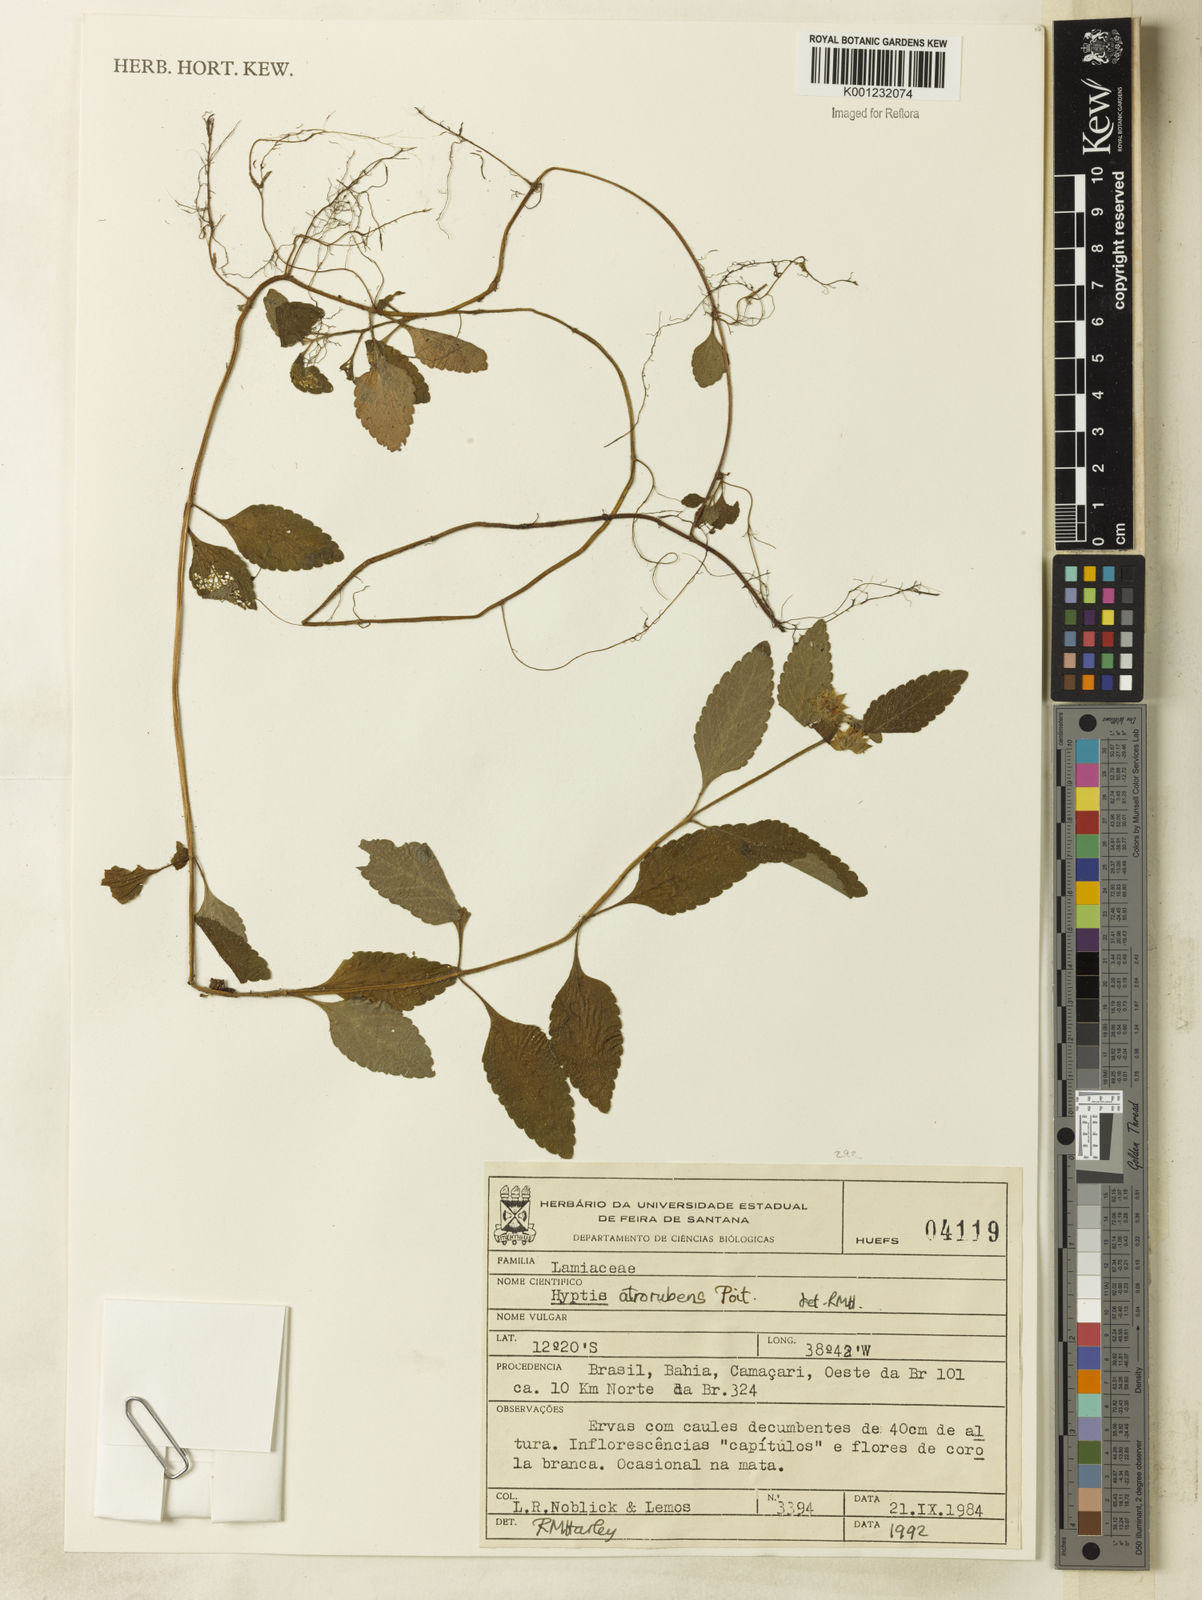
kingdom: Plantae
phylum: Tracheophyta
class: Magnoliopsida
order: Malpighiales
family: Malpighiaceae
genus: Banisteriopsis
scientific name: Banisteriopsis multifoliolata
